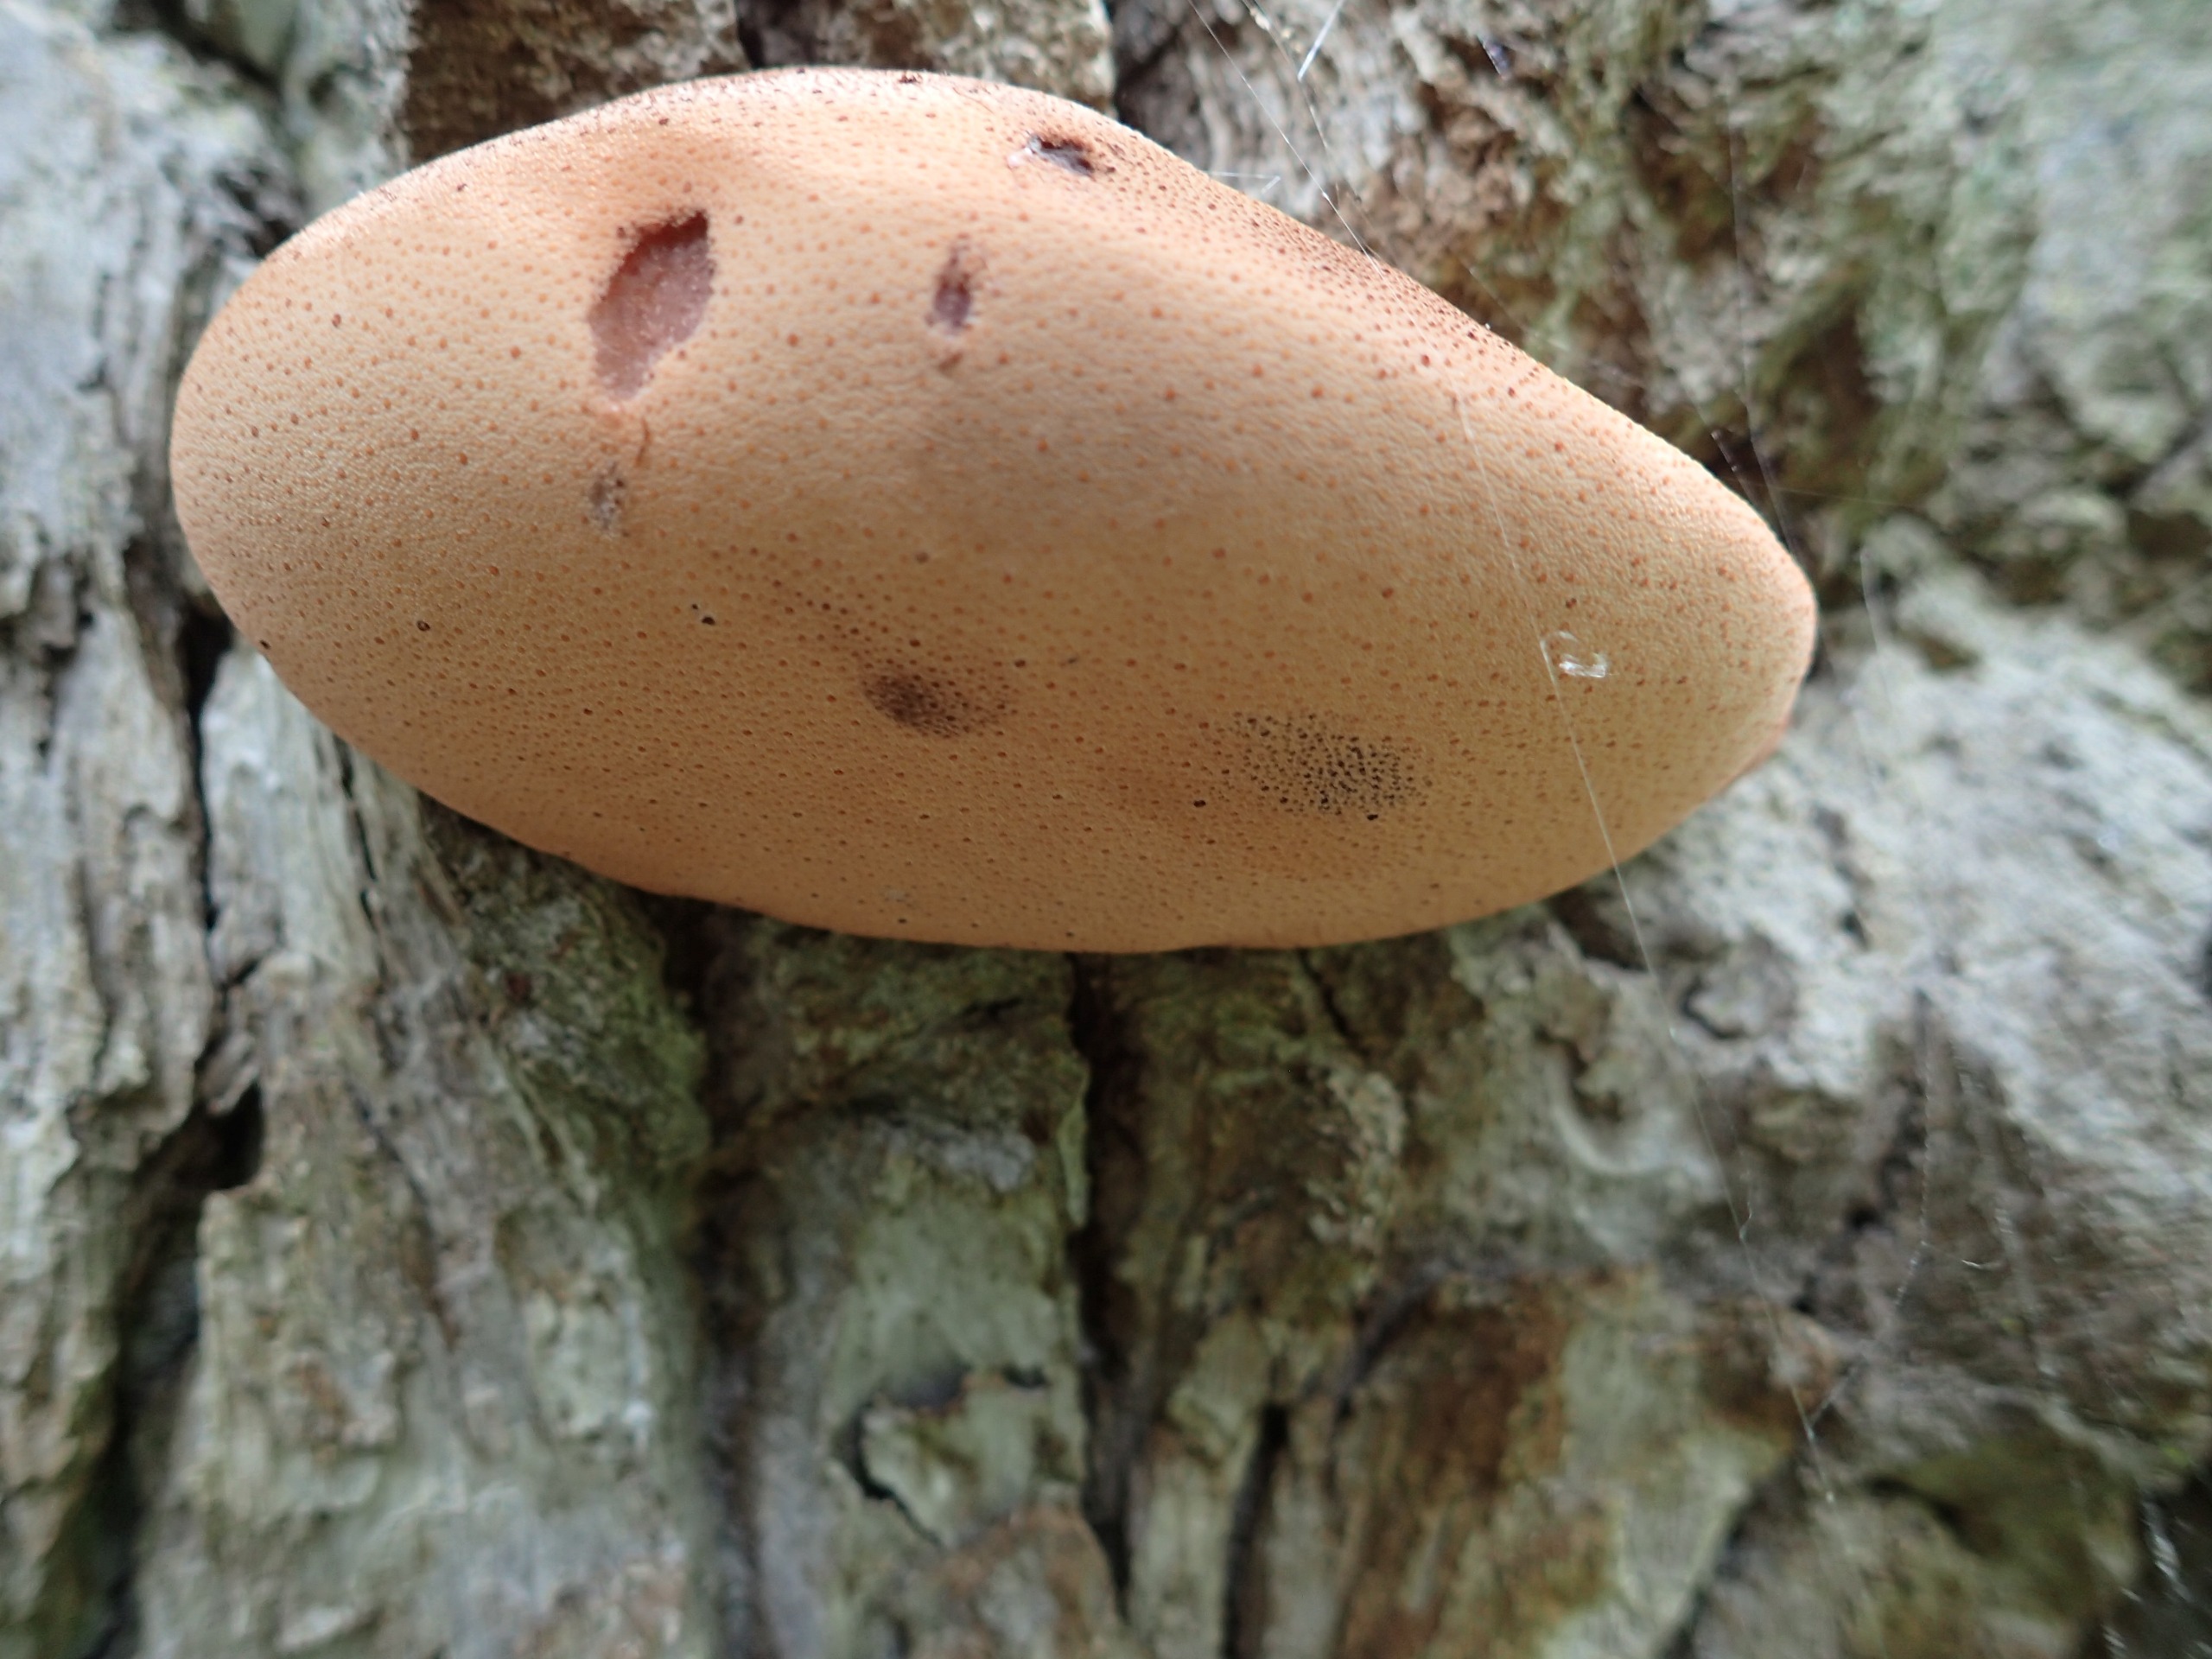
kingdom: Fungi
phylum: Basidiomycota
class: Agaricomycetes
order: Agaricales
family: Fistulinaceae
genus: Fistulina
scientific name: Fistulina hepatica
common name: Oksetunge
